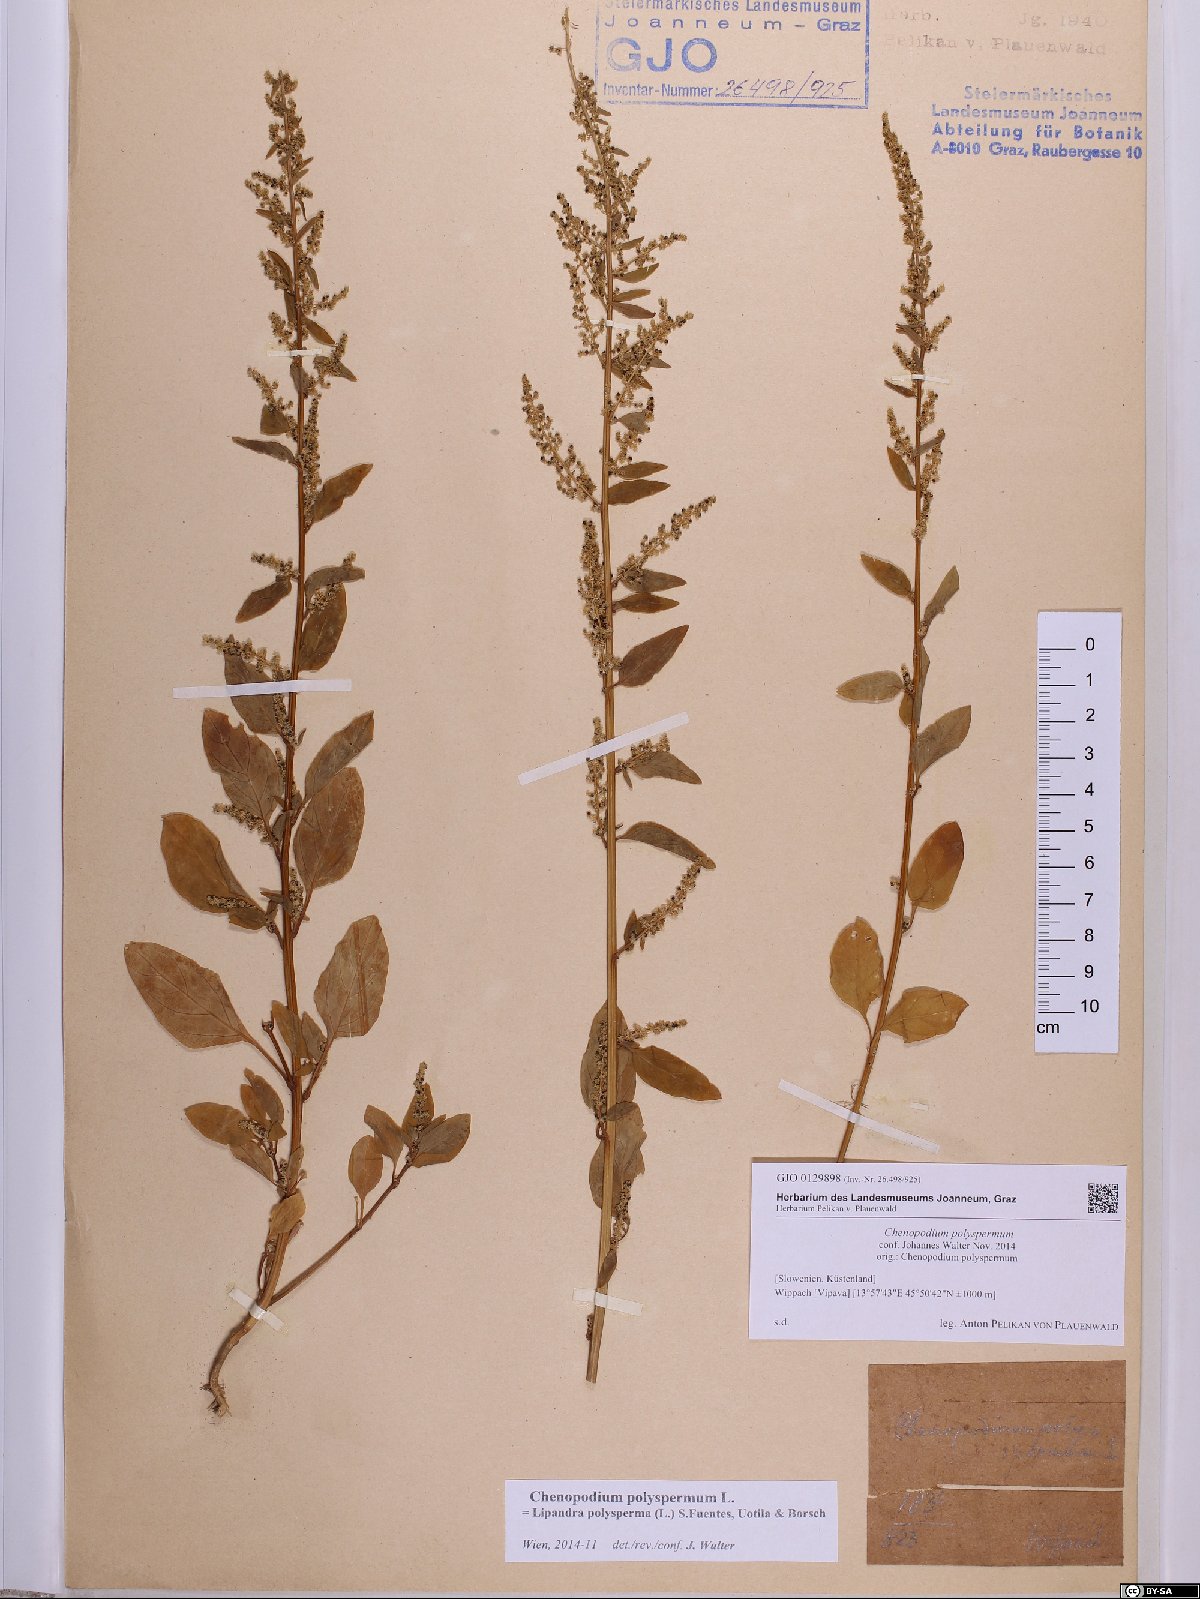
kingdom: Plantae
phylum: Tracheophyta
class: Magnoliopsida
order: Caryophyllales
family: Amaranthaceae
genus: Lipandra
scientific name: Lipandra polysperma
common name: Many-seed goosefoot
